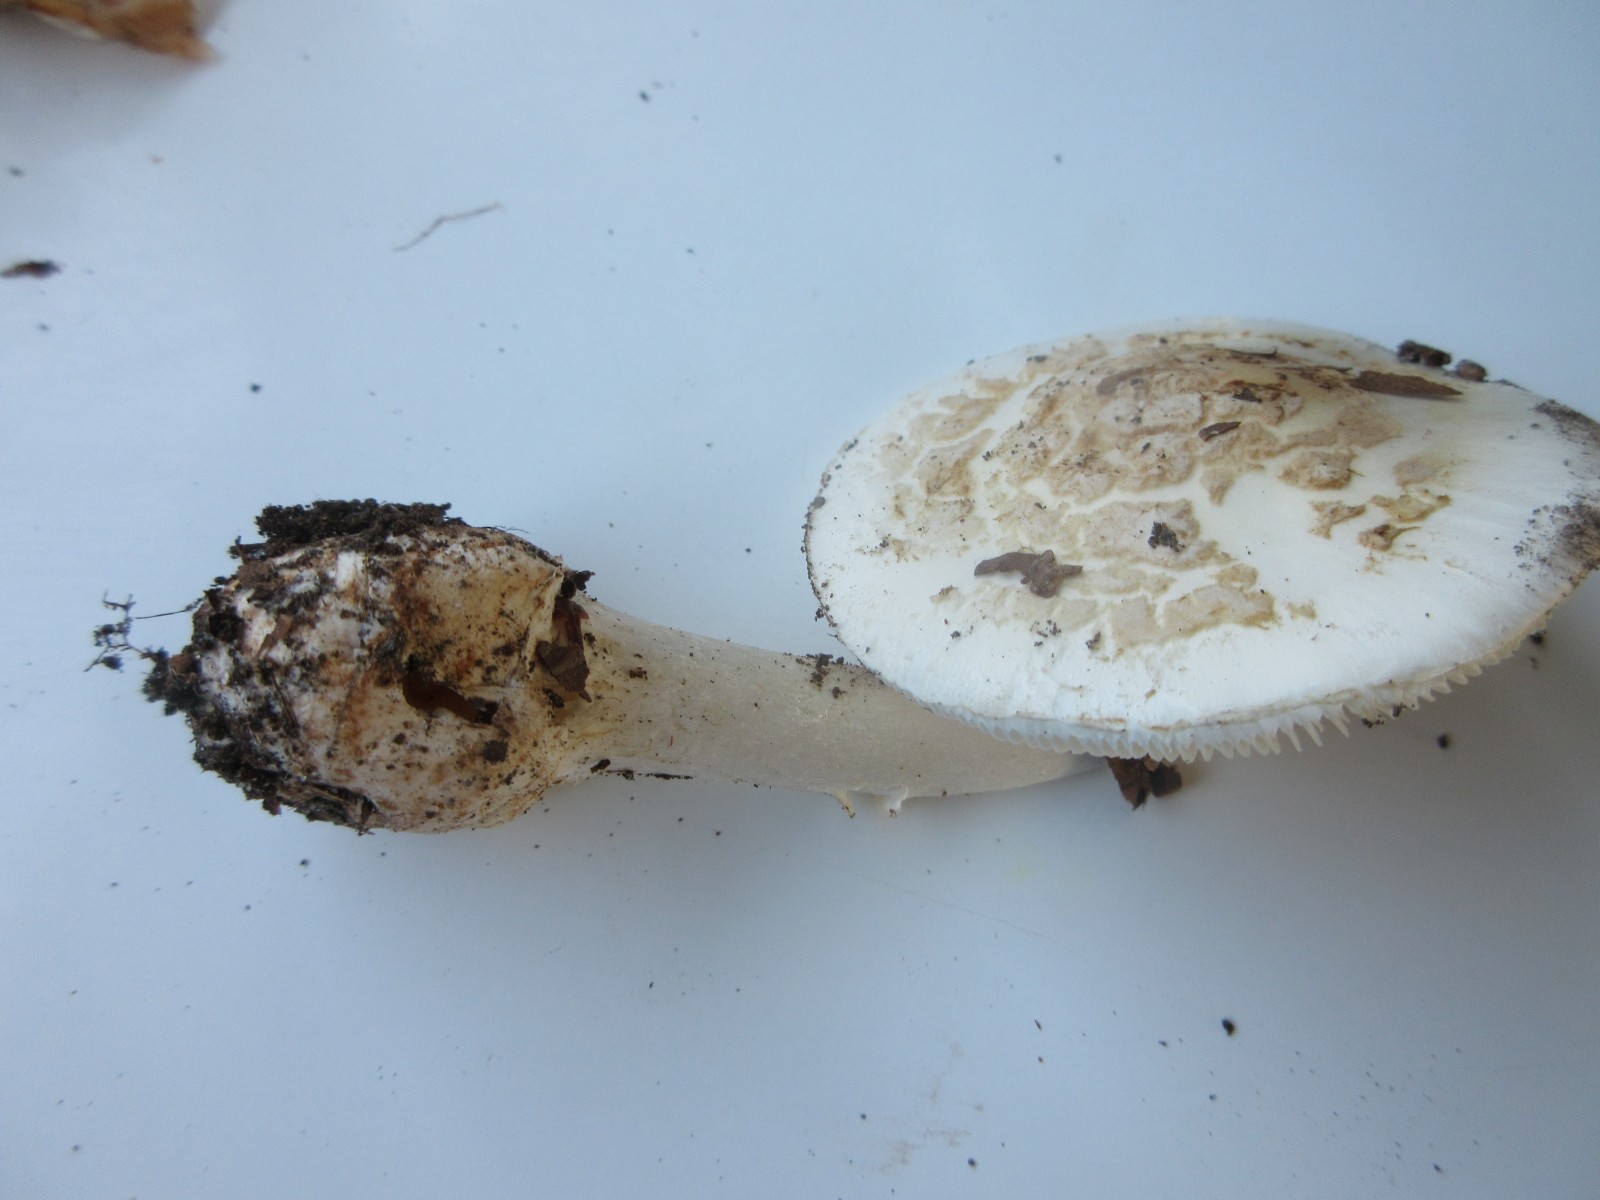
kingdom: Fungi
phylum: Basidiomycota
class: Agaricomycetes
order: Agaricales
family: Amanitaceae
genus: Amanita
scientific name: Amanita citrina
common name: False death-cap
